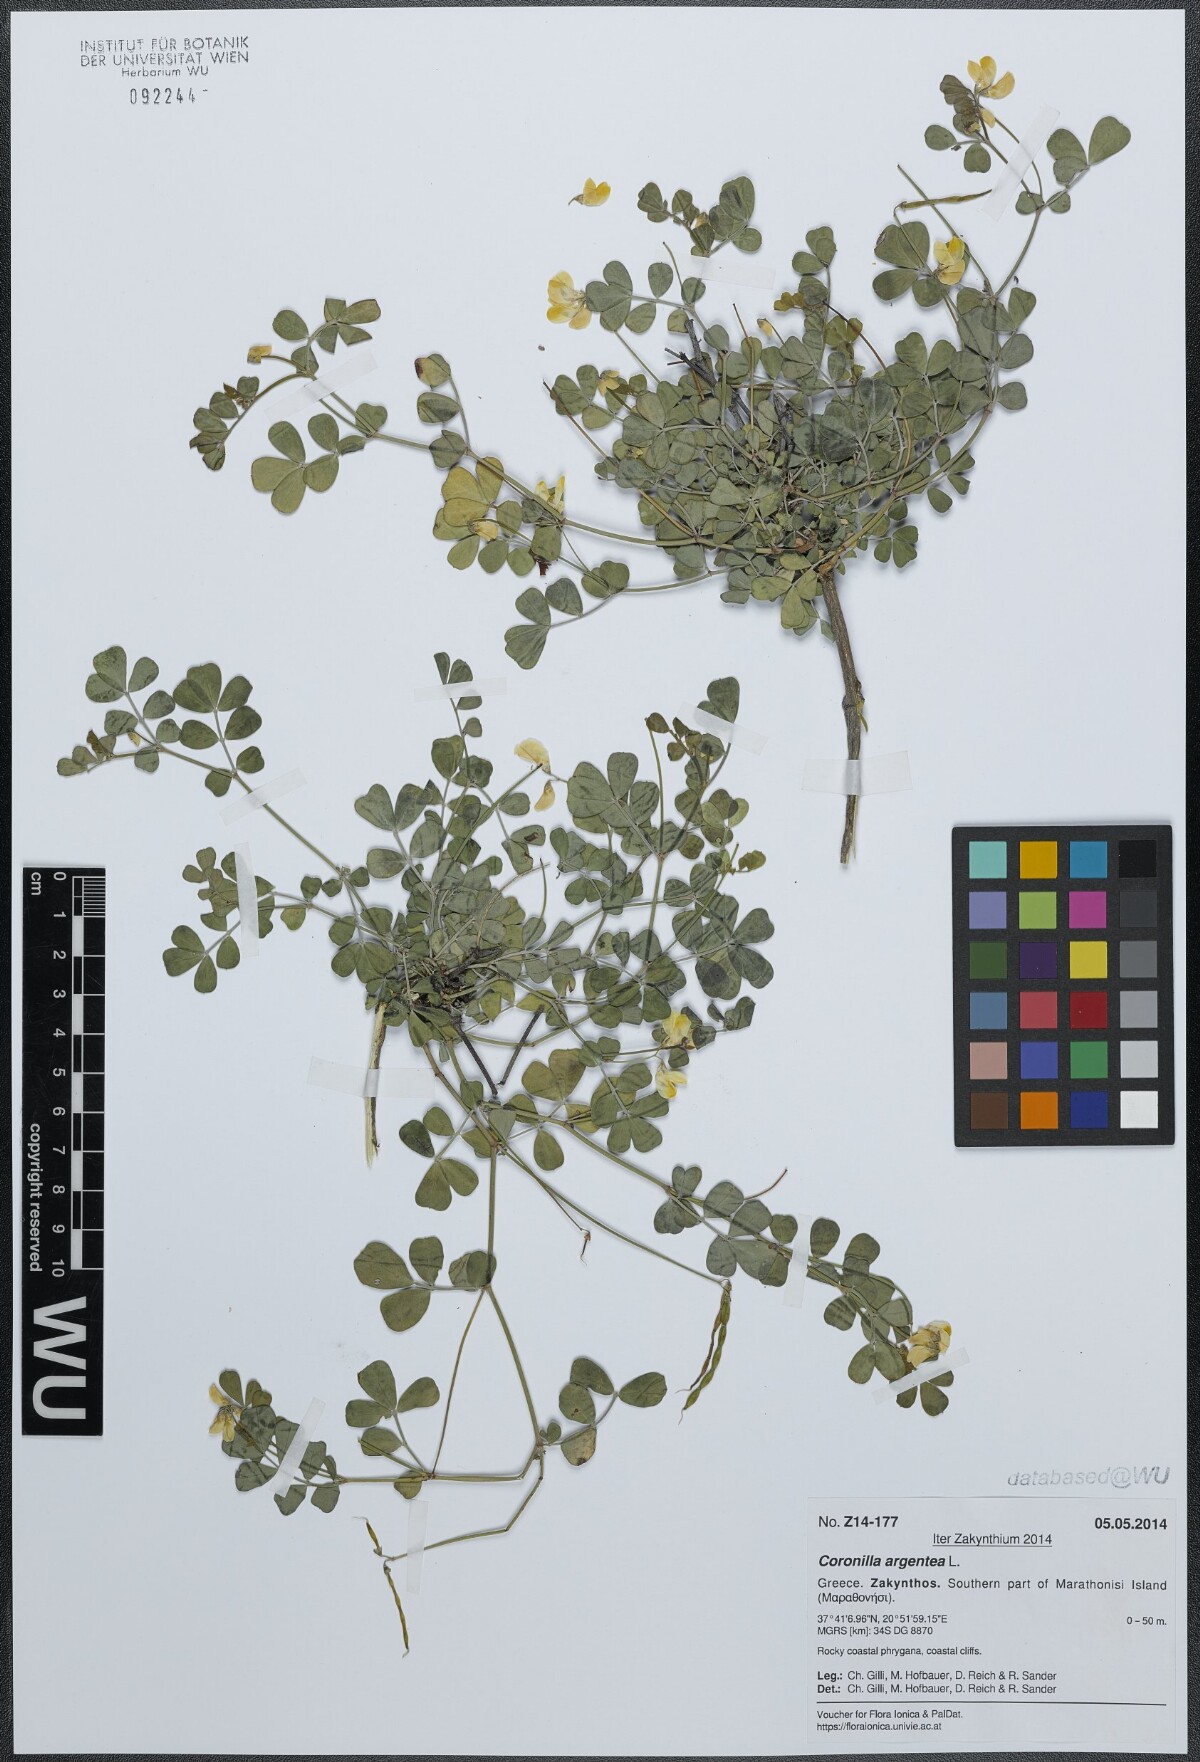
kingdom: Plantae
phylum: Tracheophyta
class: Magnoliopsida
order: Fabales
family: Fabaceae
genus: Coronilla
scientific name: Coronilla valentina
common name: Shrubby scorpion-vetch
